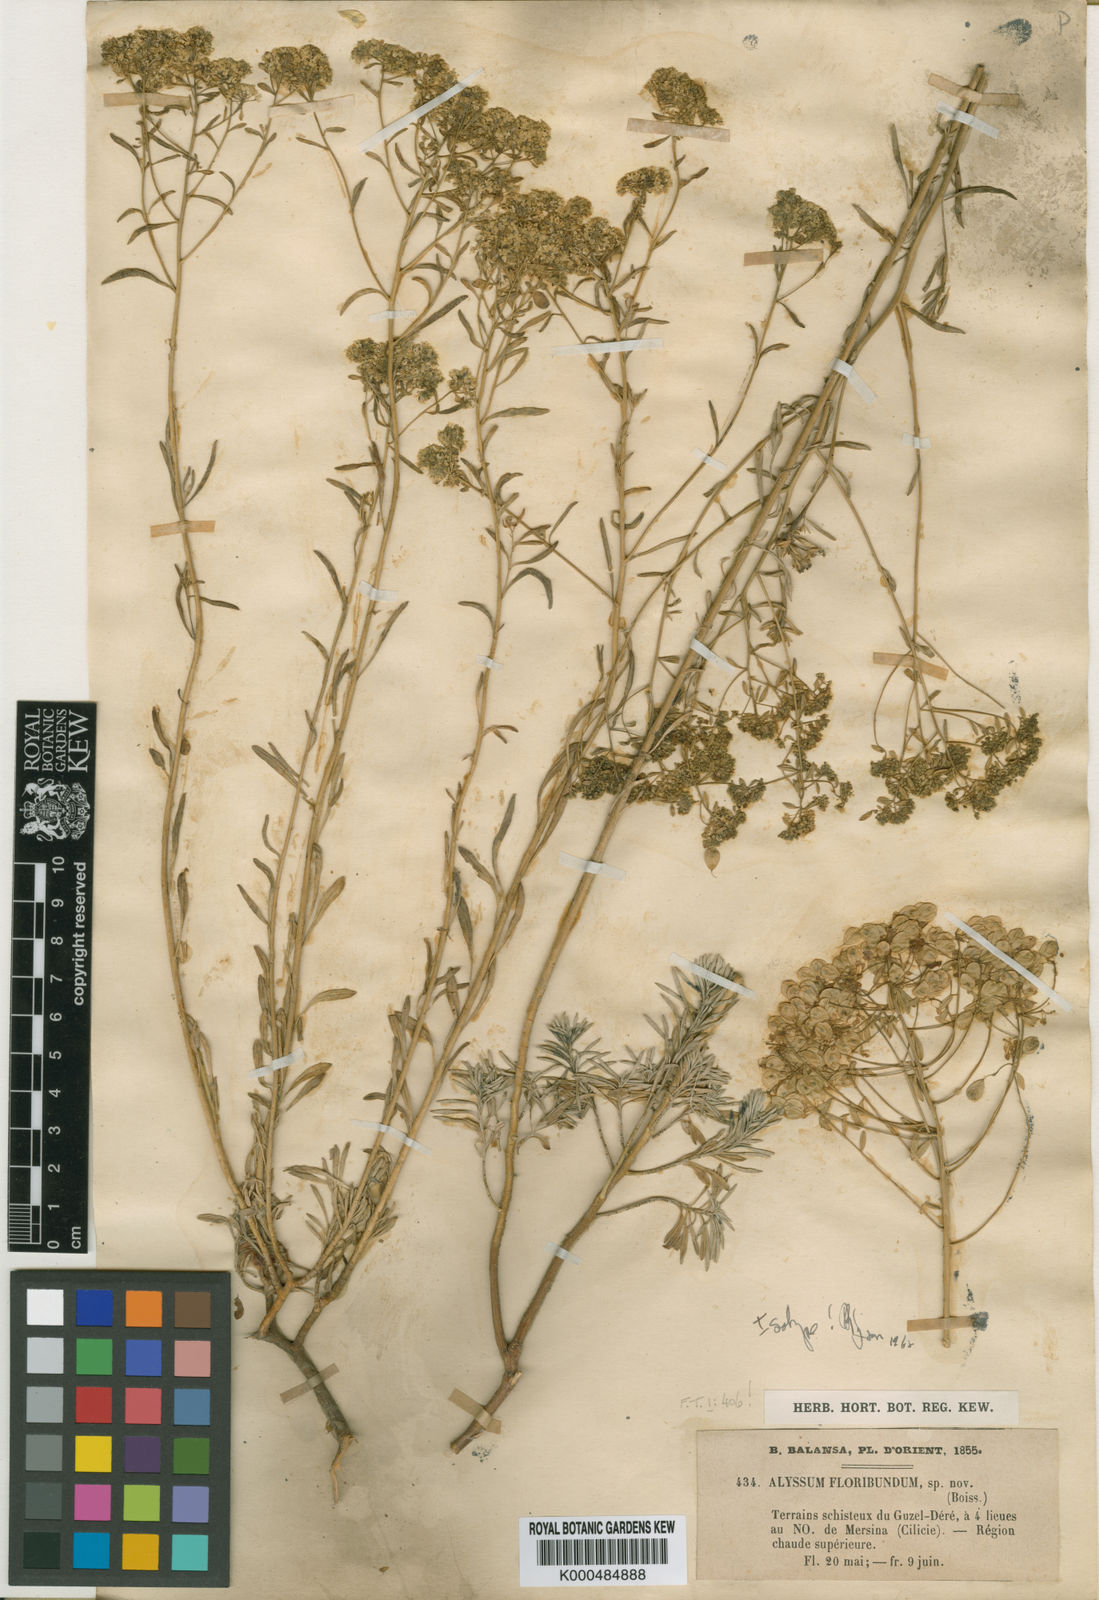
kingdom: Plantae
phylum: Tracheophyta
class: Magnoliopsida
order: Brassicales
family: Brassicaceae
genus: Odontarrhena
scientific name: Odontarrhena
